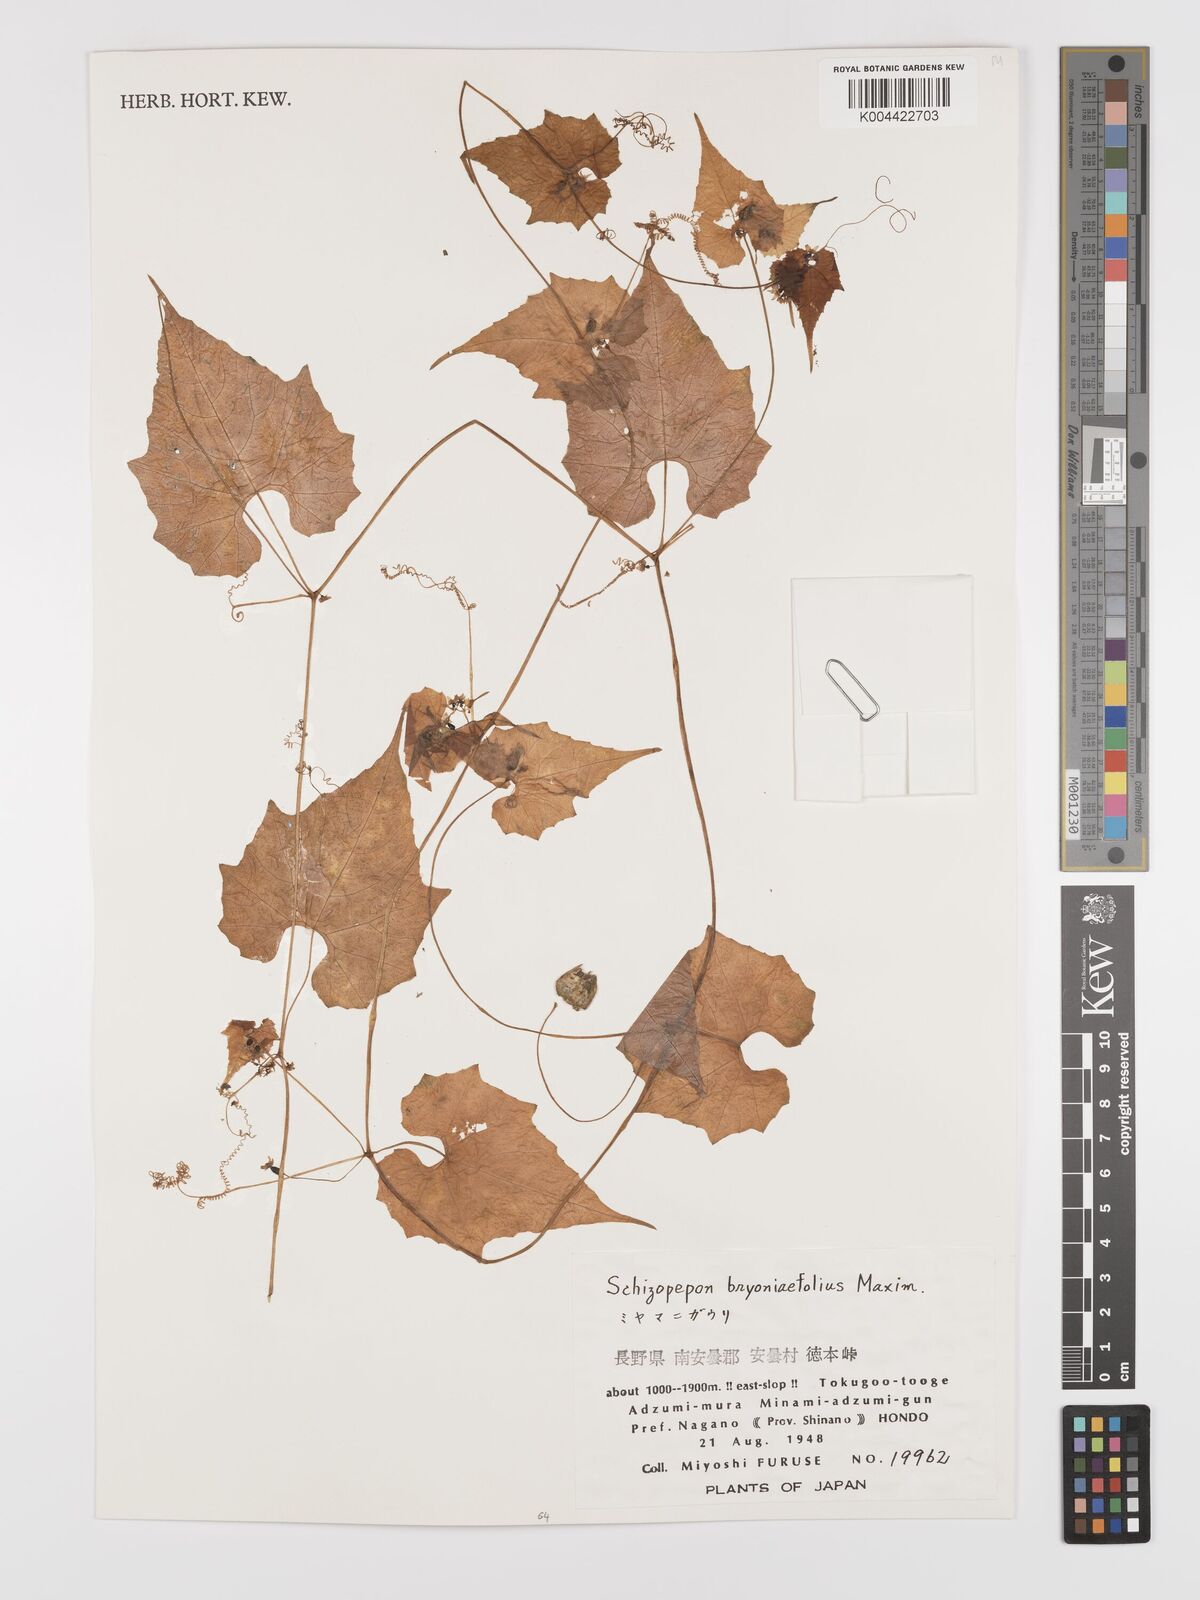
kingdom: Plantae
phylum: Tracheophyta
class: Magnoliopsida
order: Cucurbitales
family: Cucurbitaceae
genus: Schizopepon
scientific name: Schizopepon bryoniifolius
